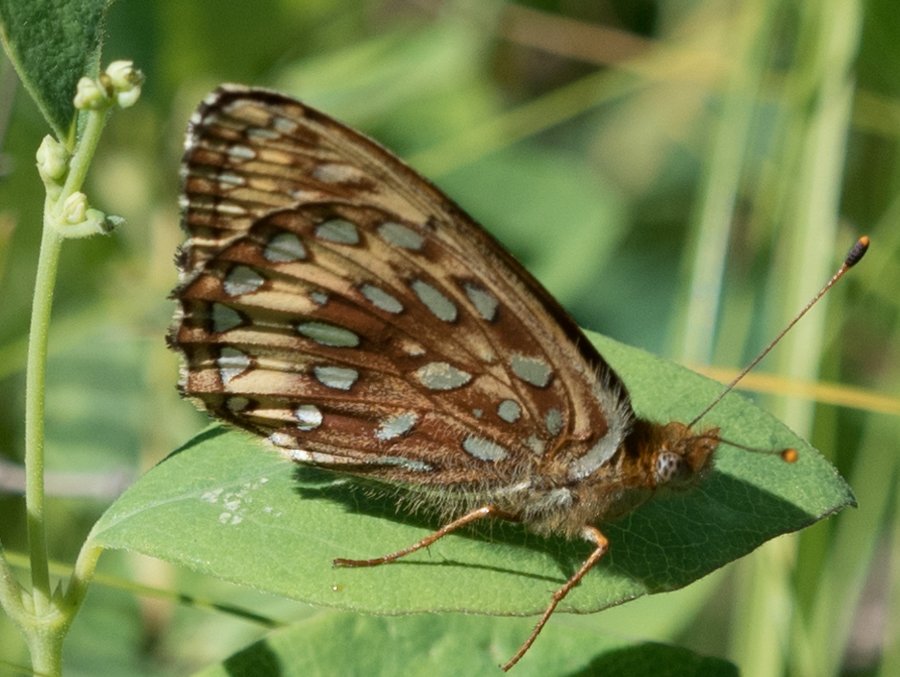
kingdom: Animalia
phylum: Arthropoda
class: Insecta
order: Lepidoptera
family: Nymphalidae
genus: Speyeria
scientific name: Speyeria atlantis
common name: Northwestern Fritillary
